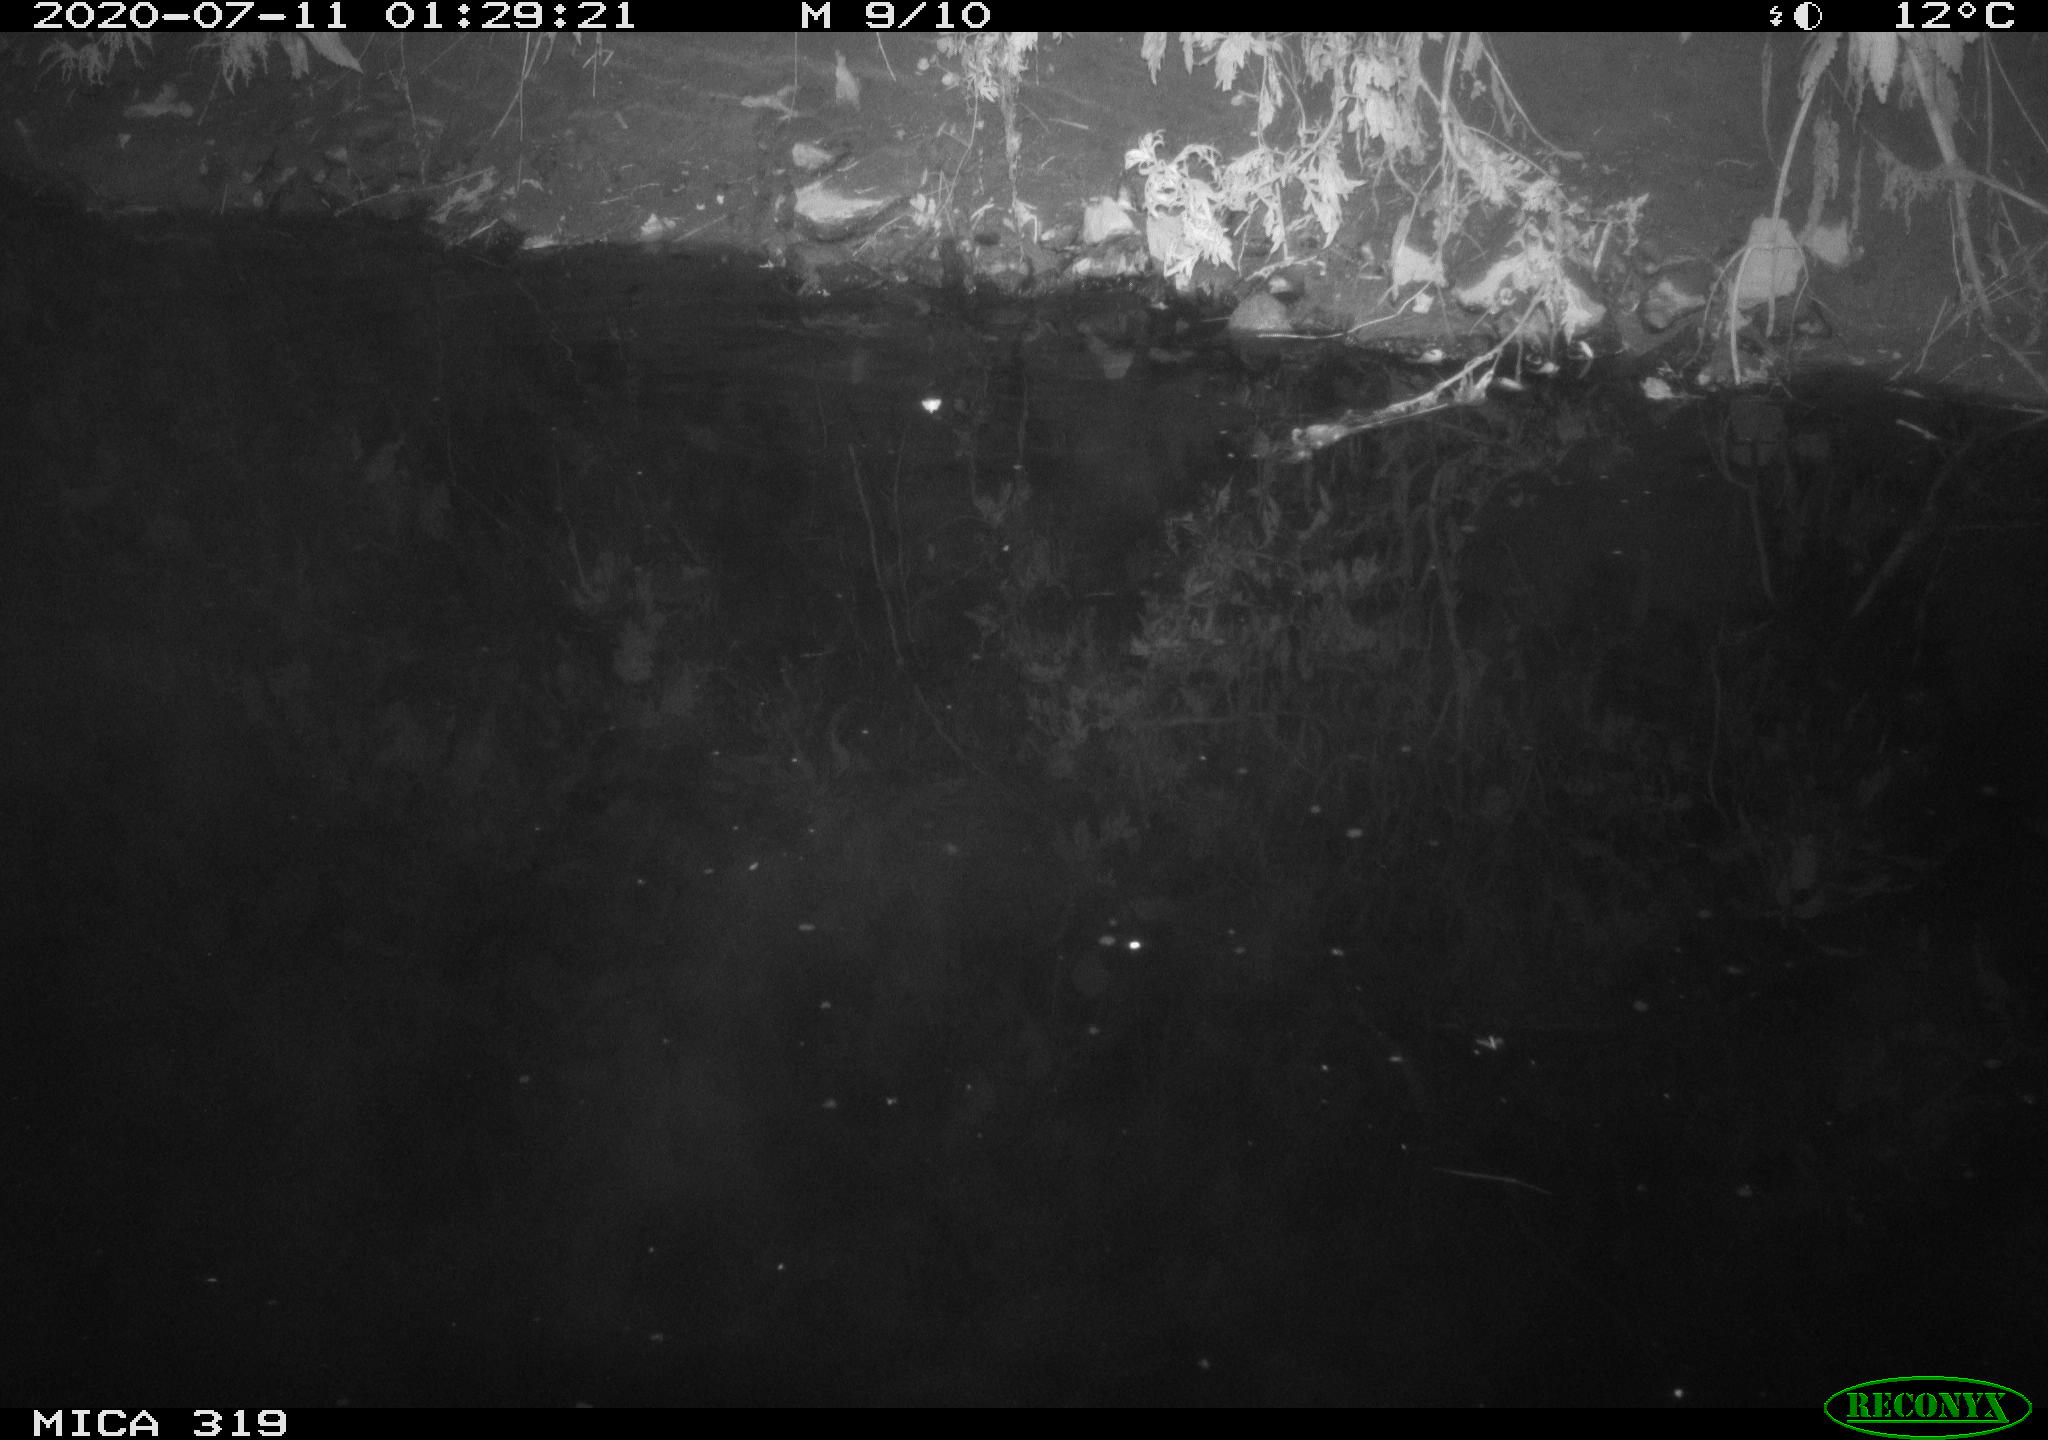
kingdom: Animalia
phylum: Chordata
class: Aves
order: Anseriformes
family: Anatidae
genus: Anas
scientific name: Anas platyrhynchos
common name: Mallard
